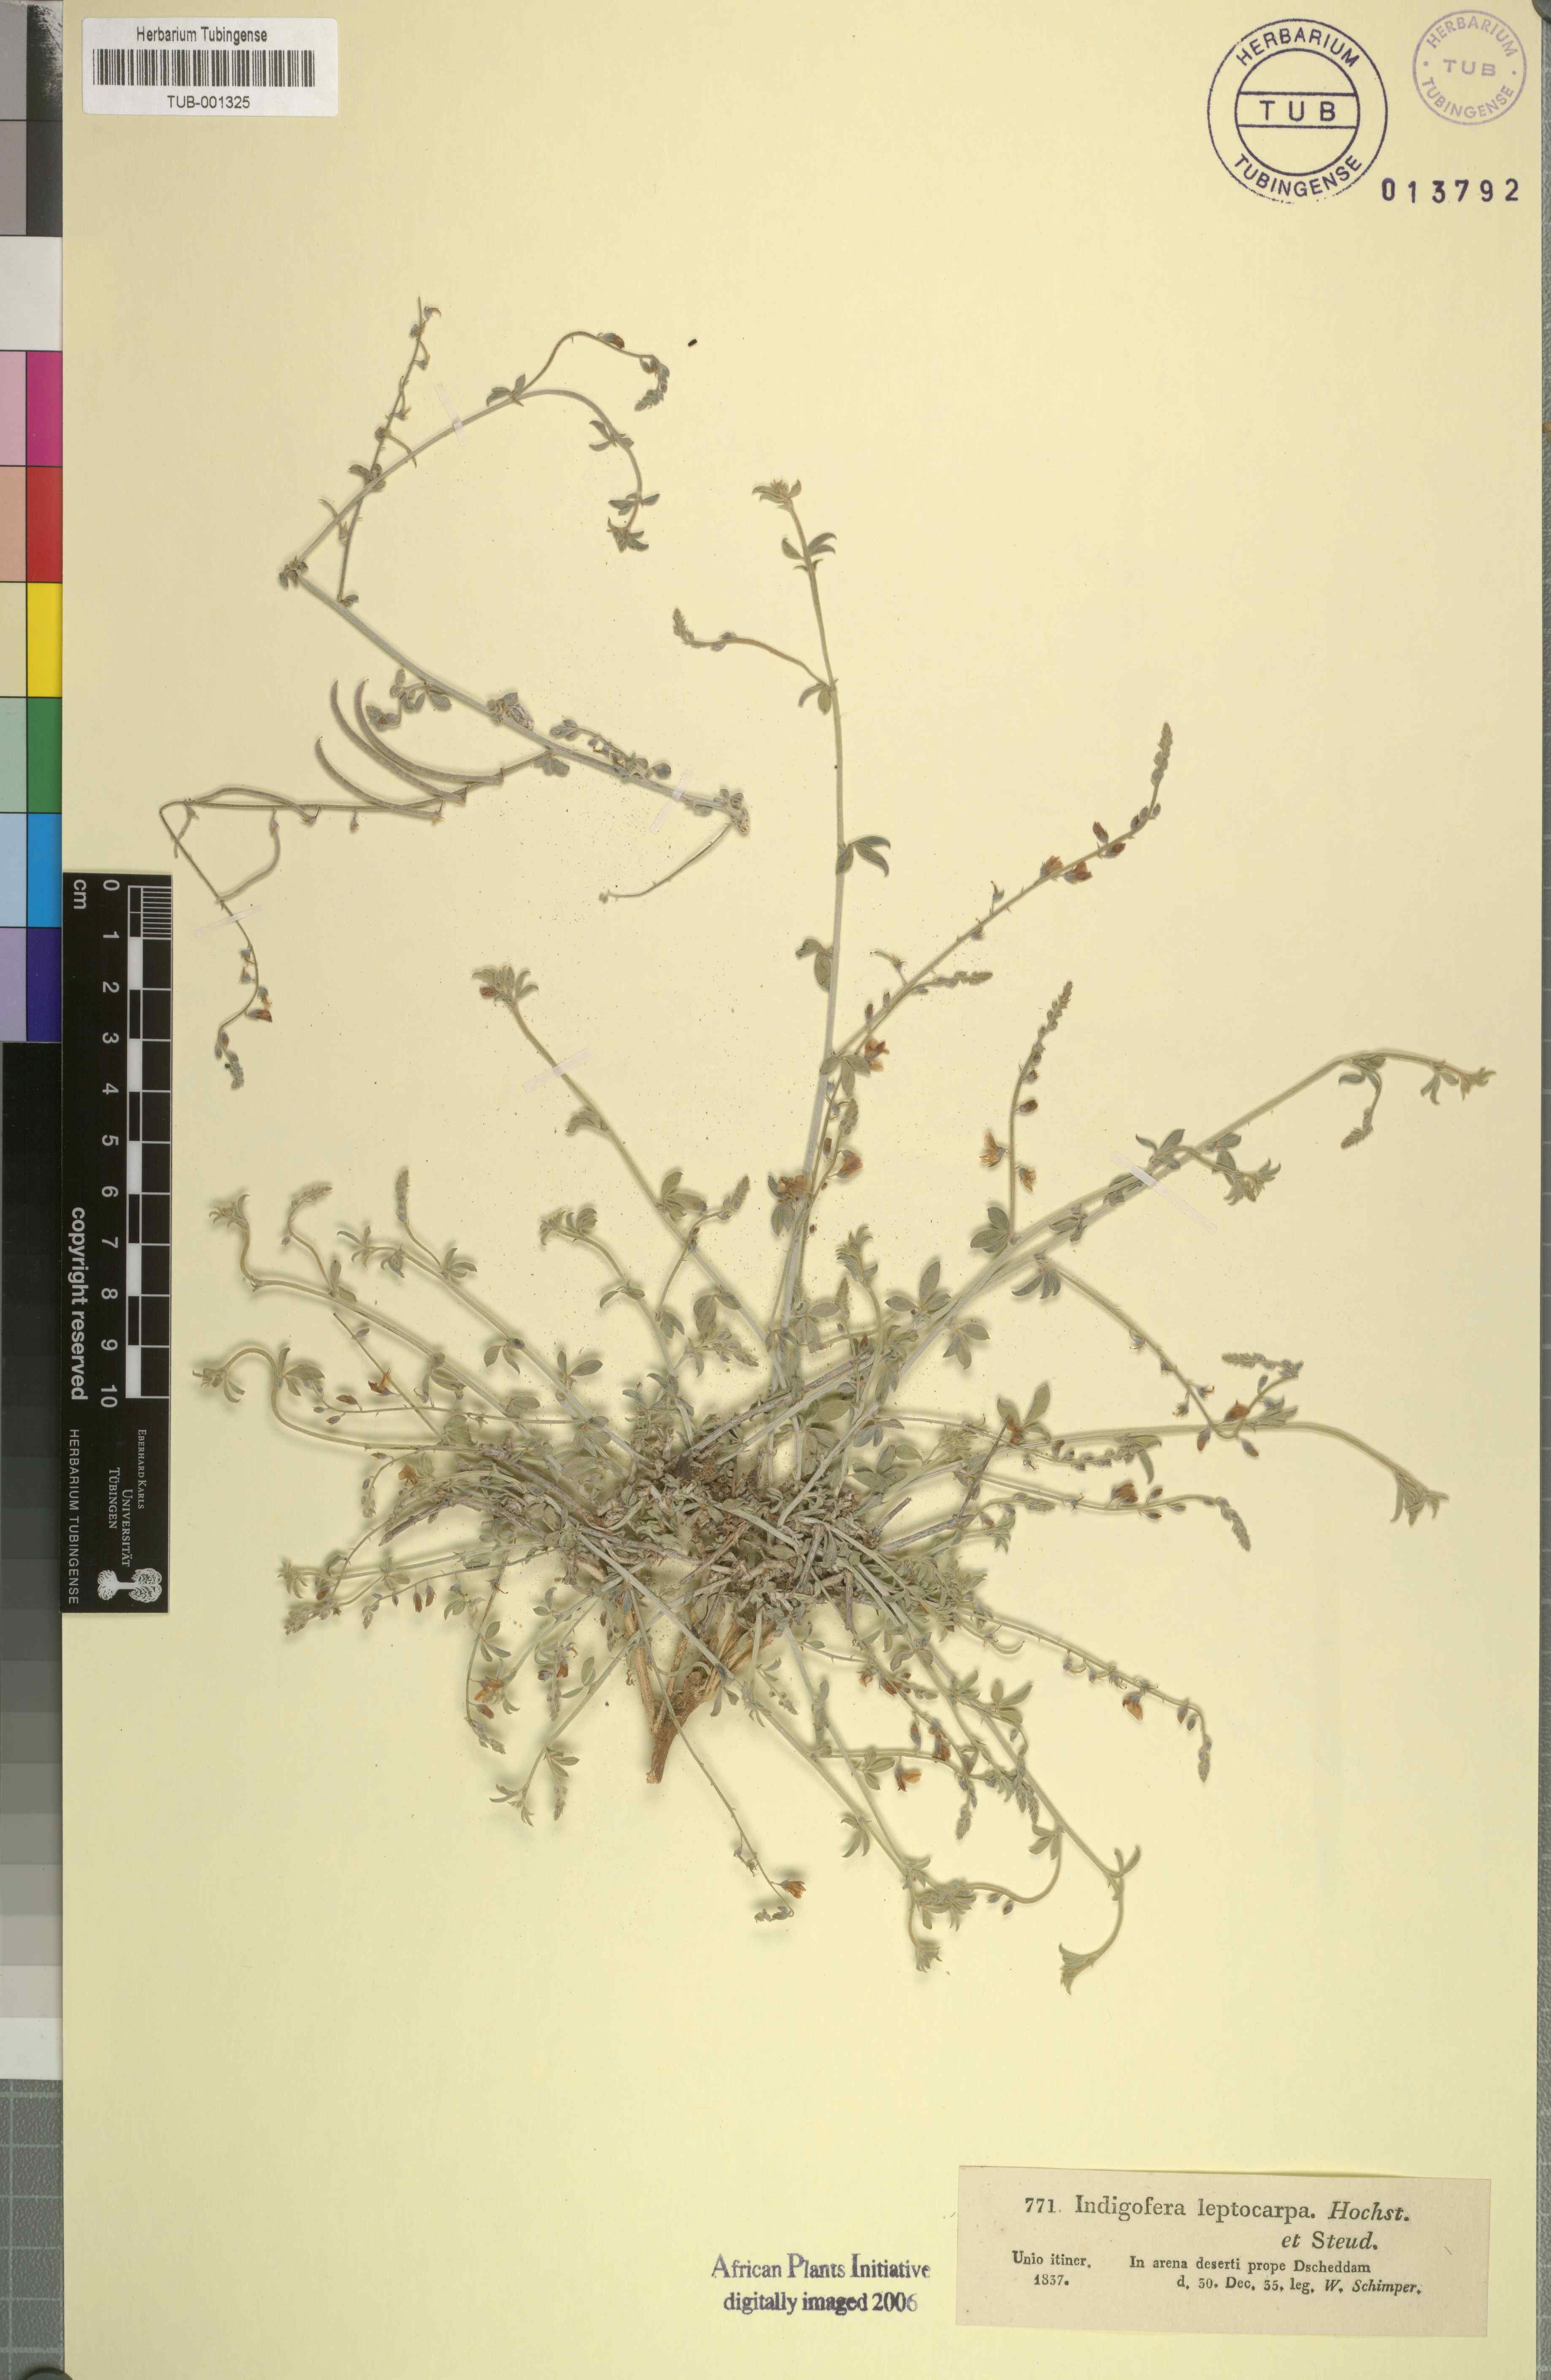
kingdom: Plantae
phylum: Tracheophyta
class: Magnoliopsida
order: Fabales
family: Fabaceae
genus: Microcharis
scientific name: Microcharis disjuncta
